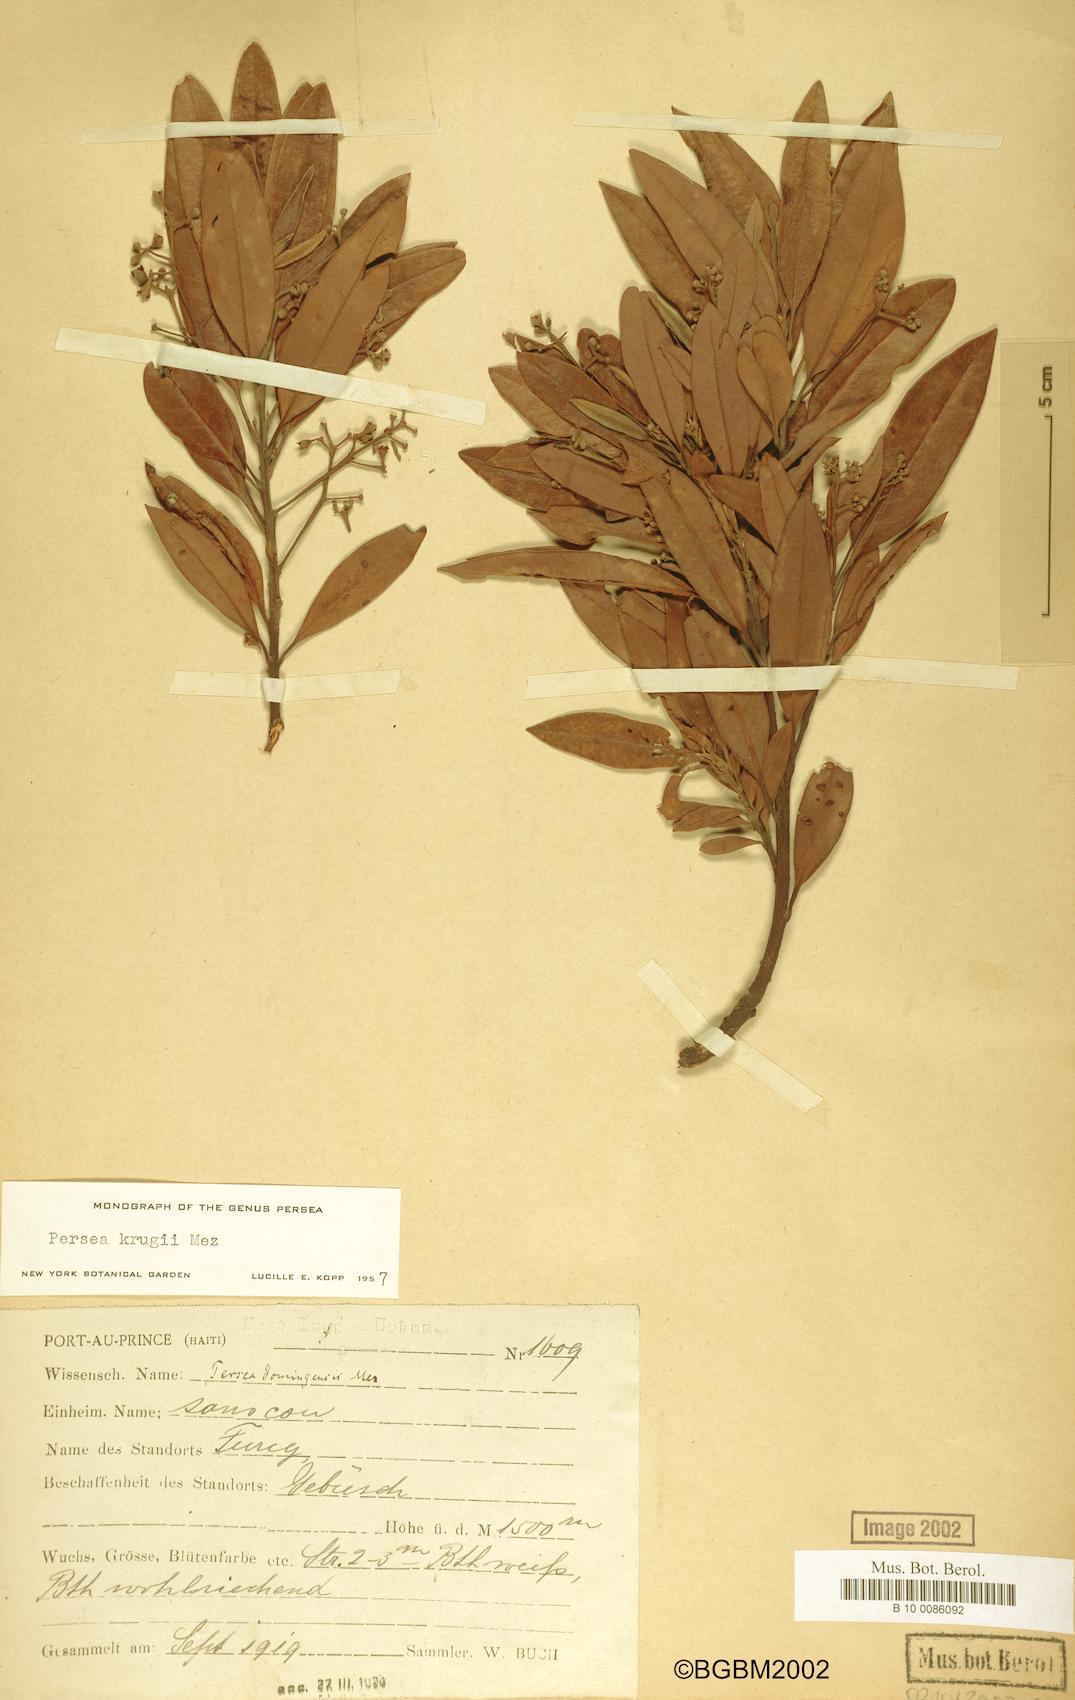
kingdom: Plantae
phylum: Tracheophyta
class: Magnoliopsida
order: Laurales
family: Lauraceae
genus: Persea
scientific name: Persea krugii
